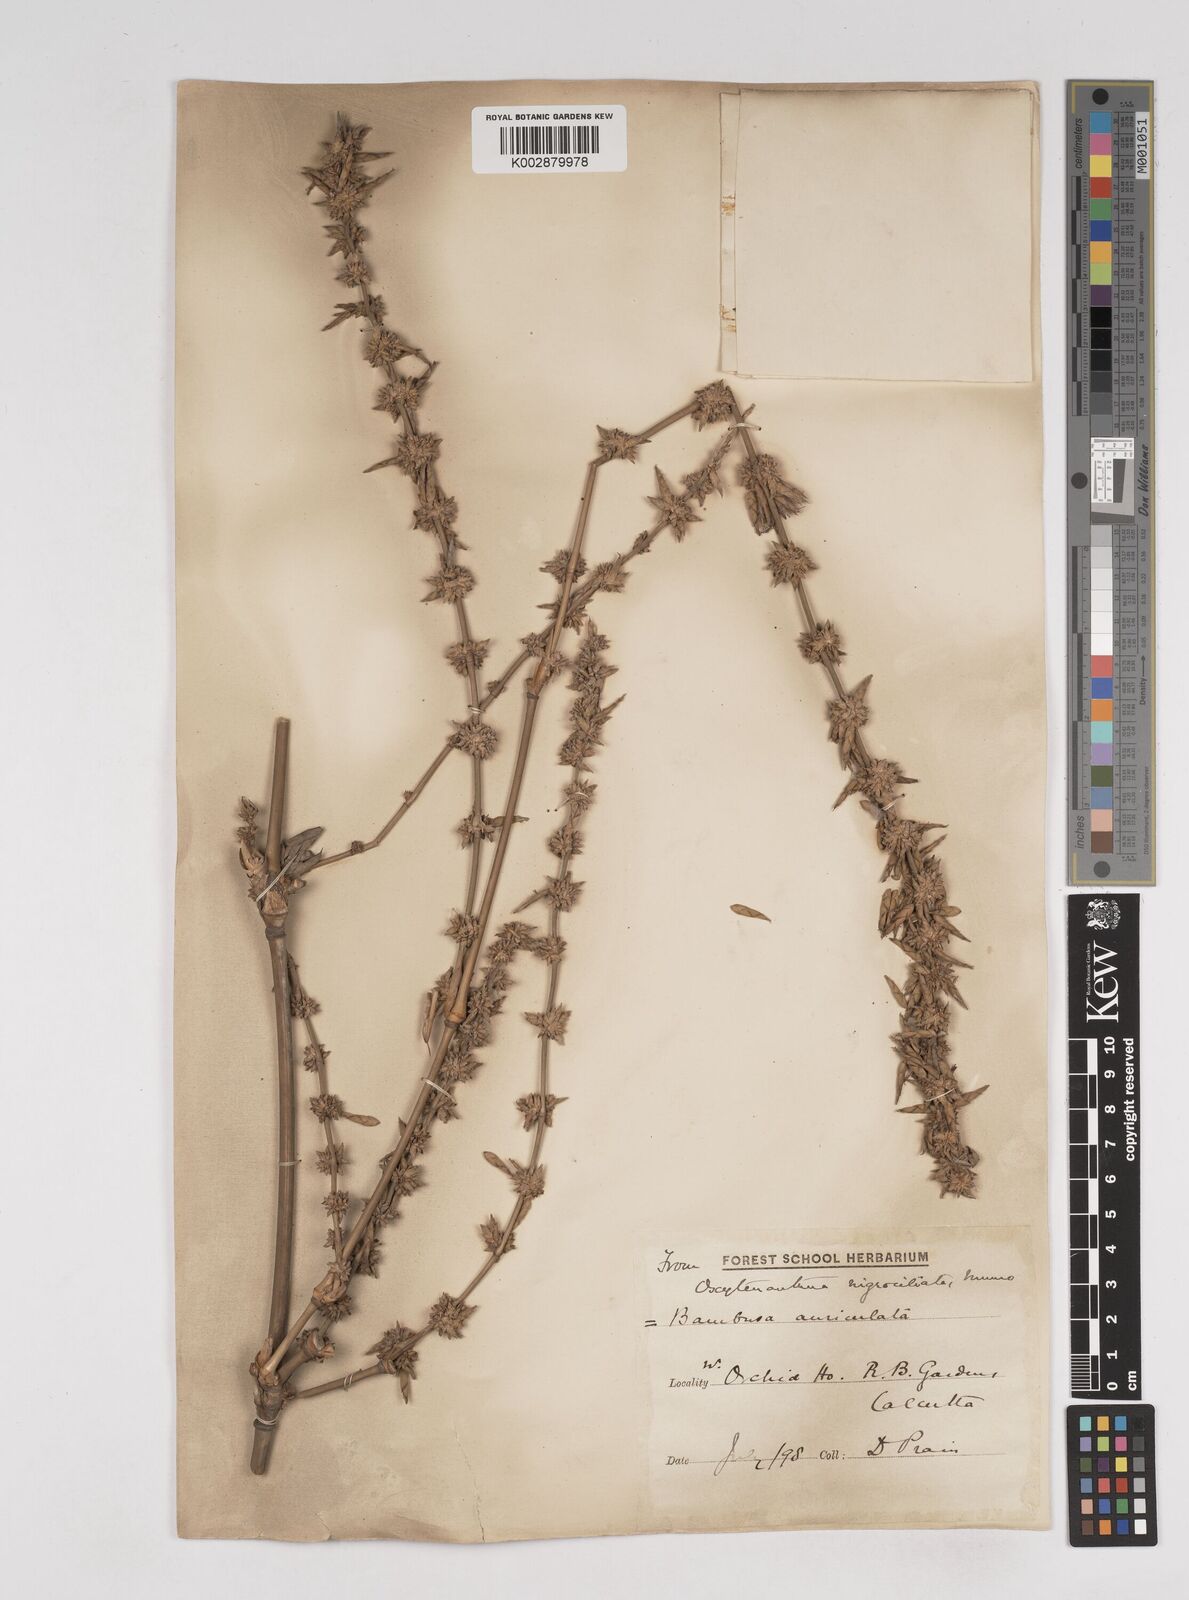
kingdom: Plantae
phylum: Tracheophyta
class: Liliopsida
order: Poales
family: Poaceae
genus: Gigantochloa
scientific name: Gigantochloa nigrociliata
